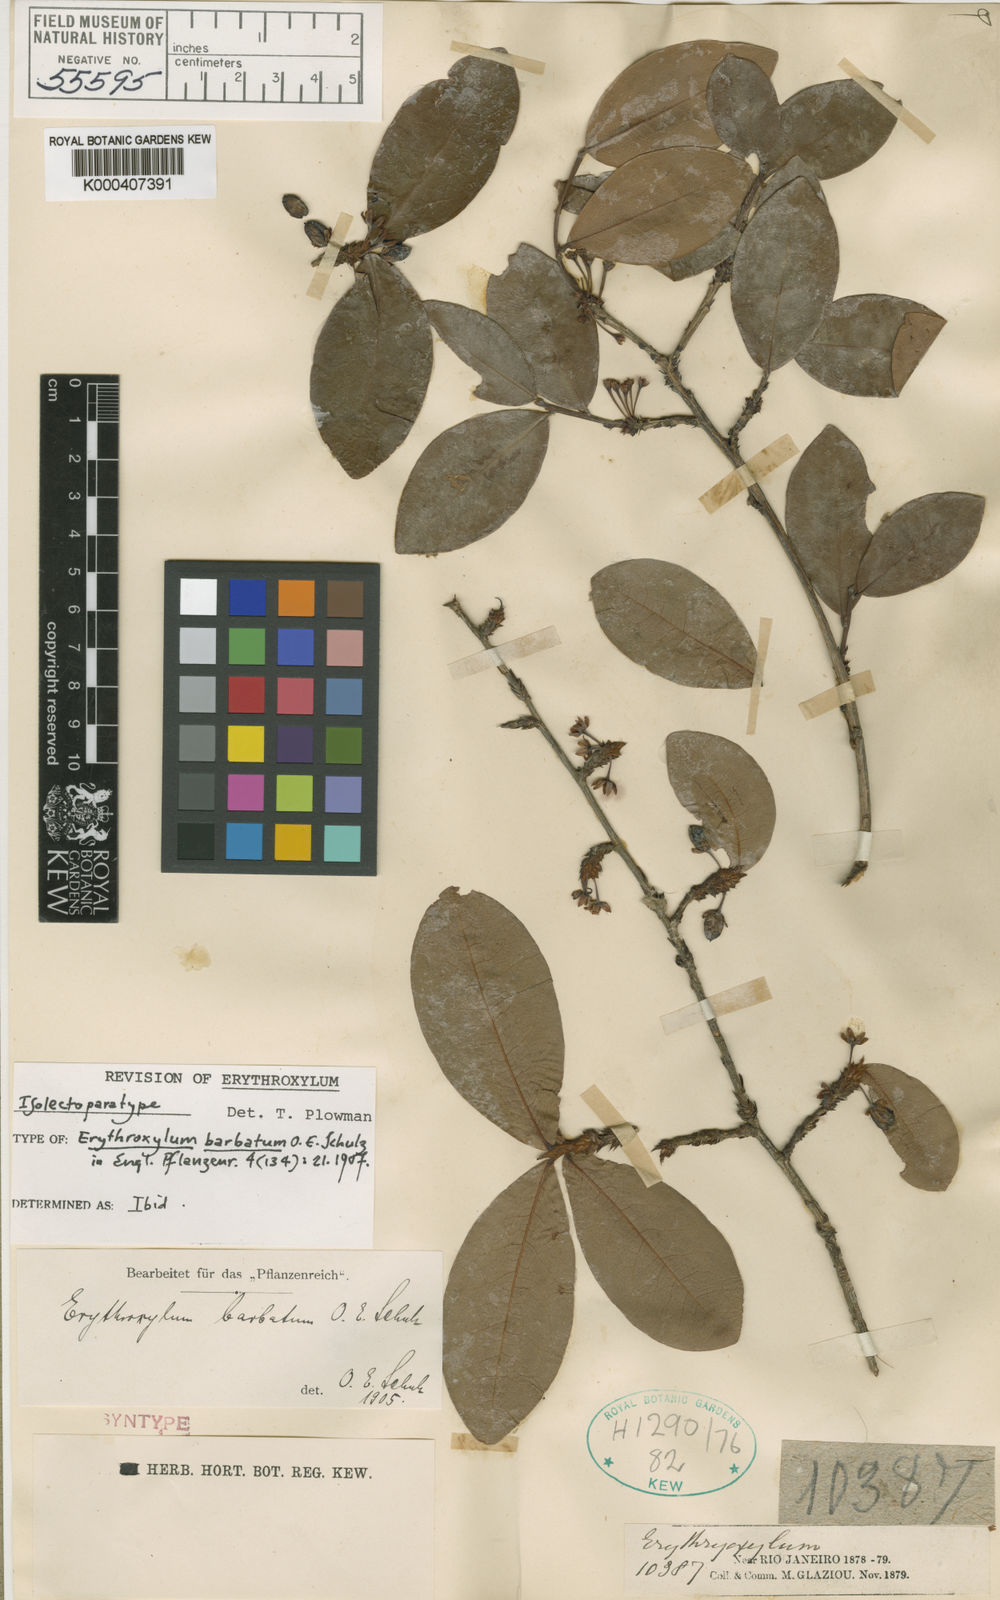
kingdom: Plantae
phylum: Tracheophyta
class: Magnoliopsida
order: Malpighiales
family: Erythroxylaceae
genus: Erythroxylum
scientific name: Erythroxylum
